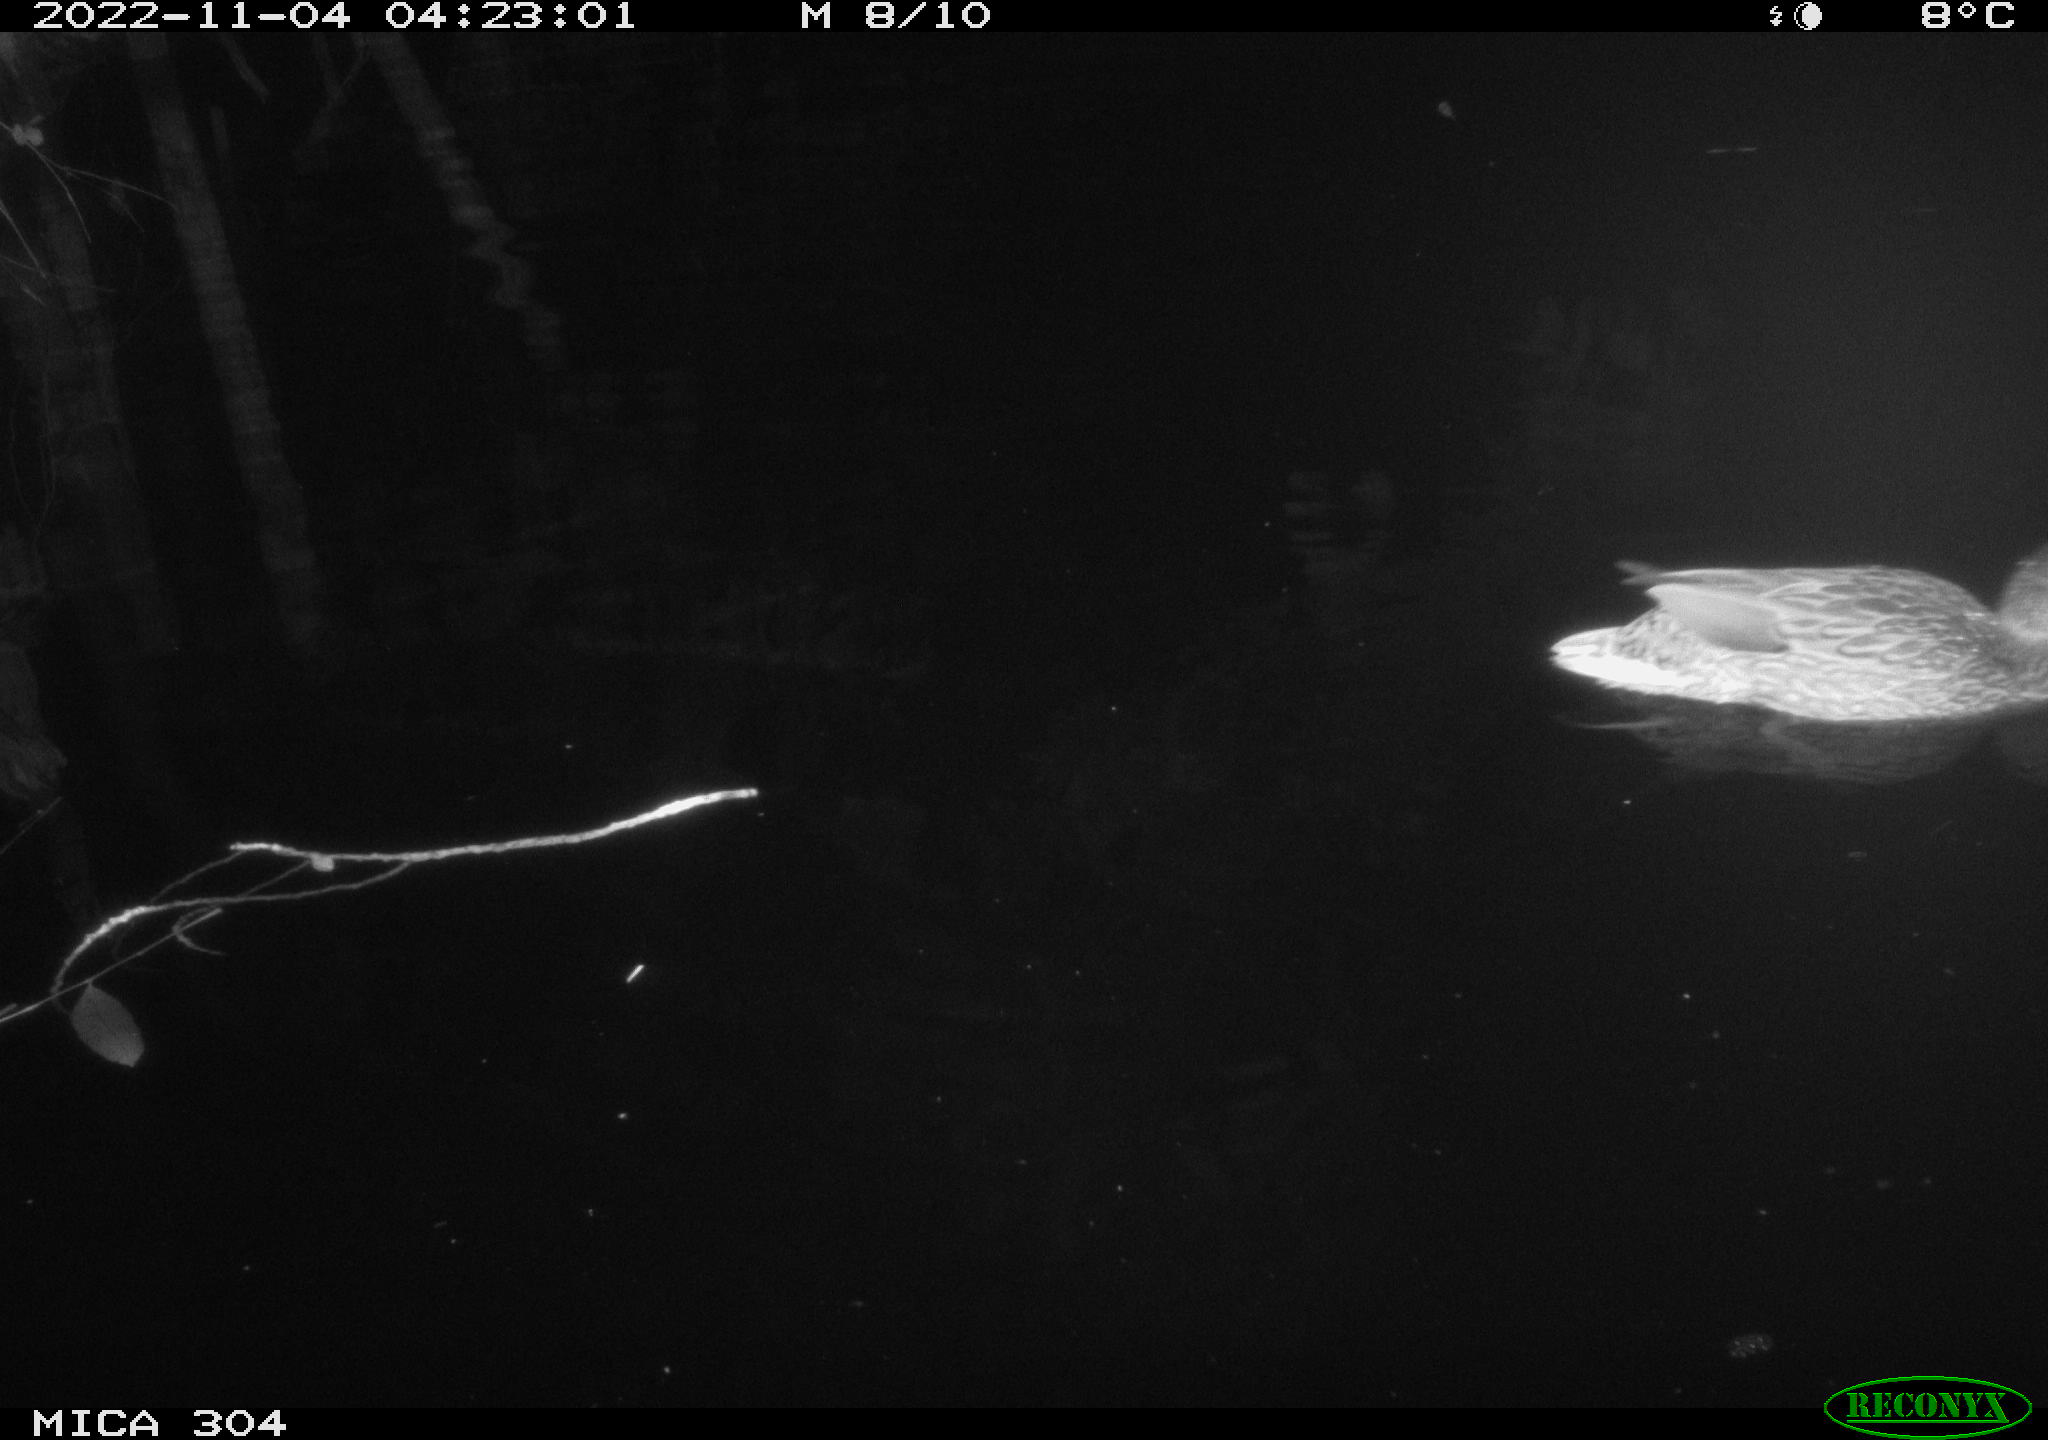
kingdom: Animalia
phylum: Chordata
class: Aves
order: Anseriformes
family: Anatidae
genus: Anas
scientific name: Anas
